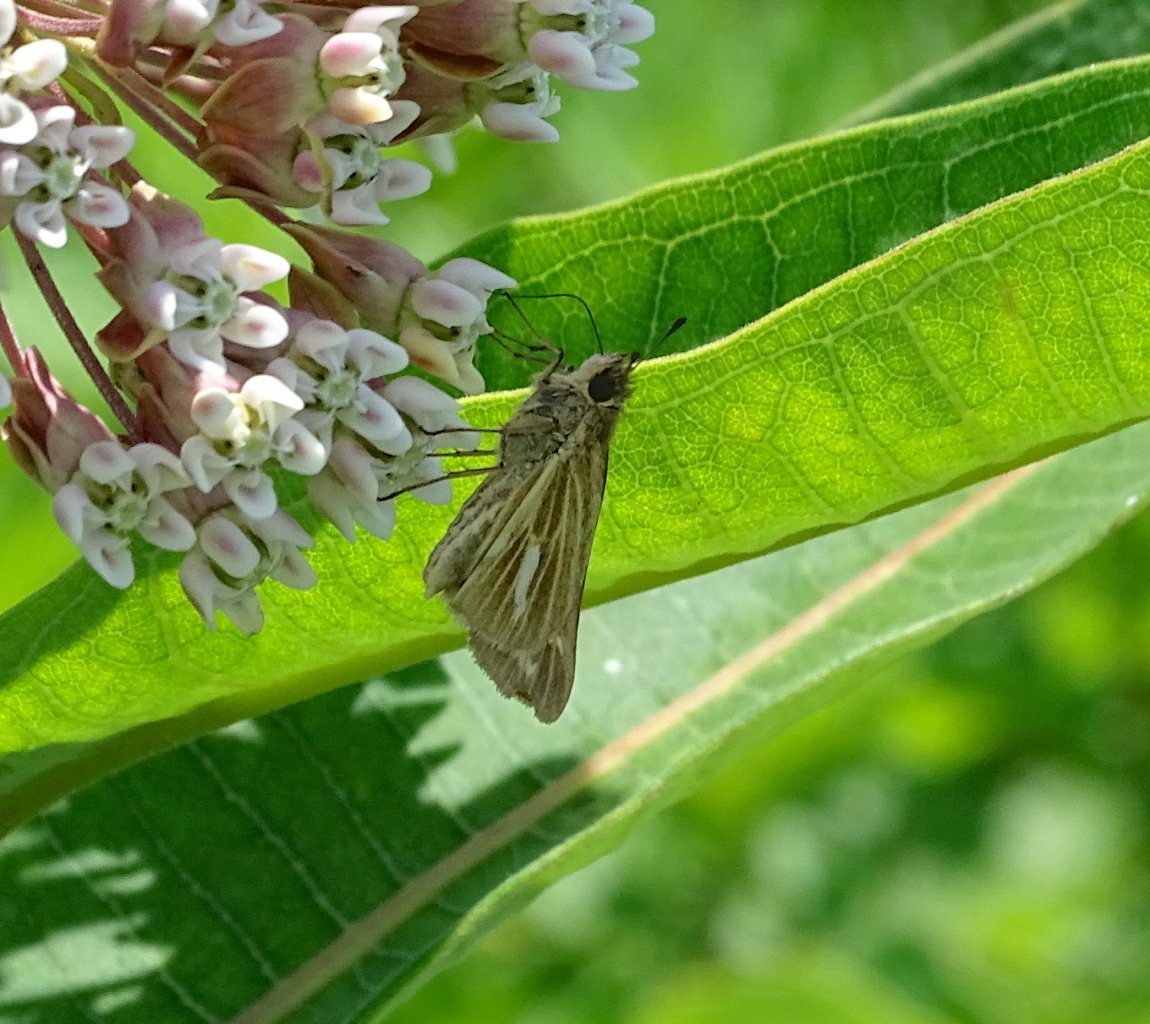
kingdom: Animalia
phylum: Arthropoda
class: Insecta
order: Lepidoptera
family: Hesperiidae
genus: Panoquina
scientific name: Panoquina panoquin
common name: Salt Marsh Skipper
